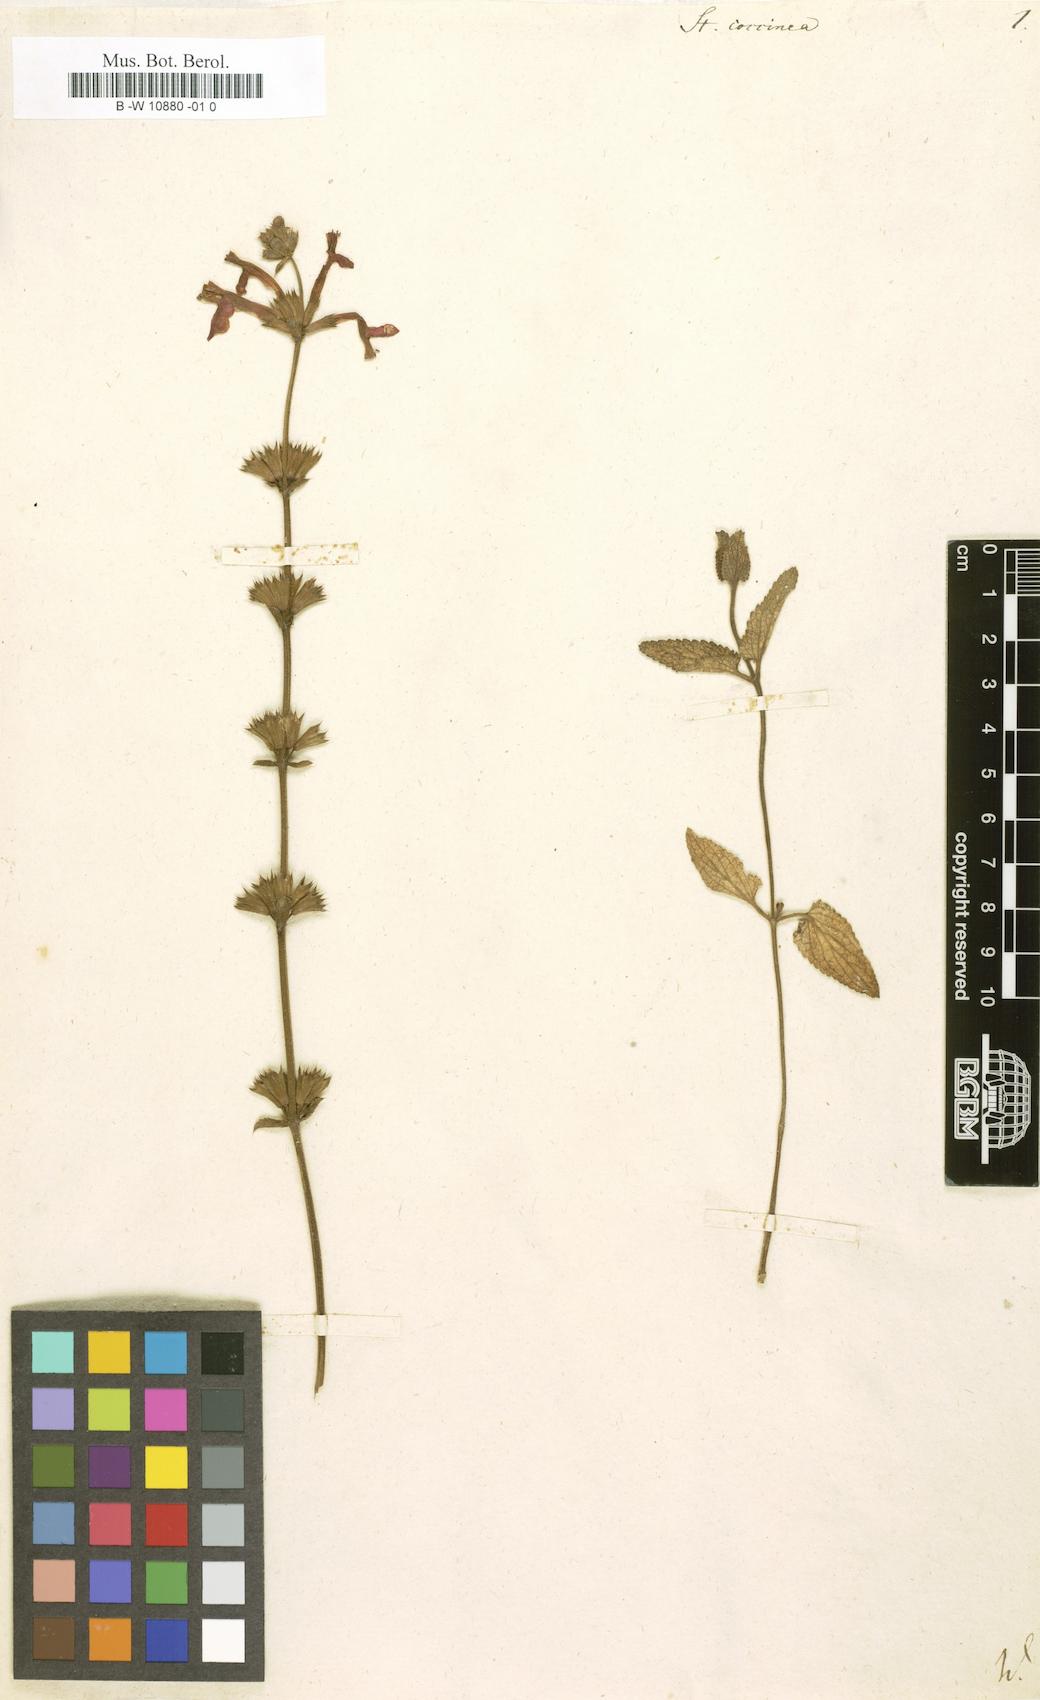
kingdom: Plantae
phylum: Tracheophyta
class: Magnoliopsida
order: Lamiales
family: Lamiaceae
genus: Stachys
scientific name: Stachys coccinea
